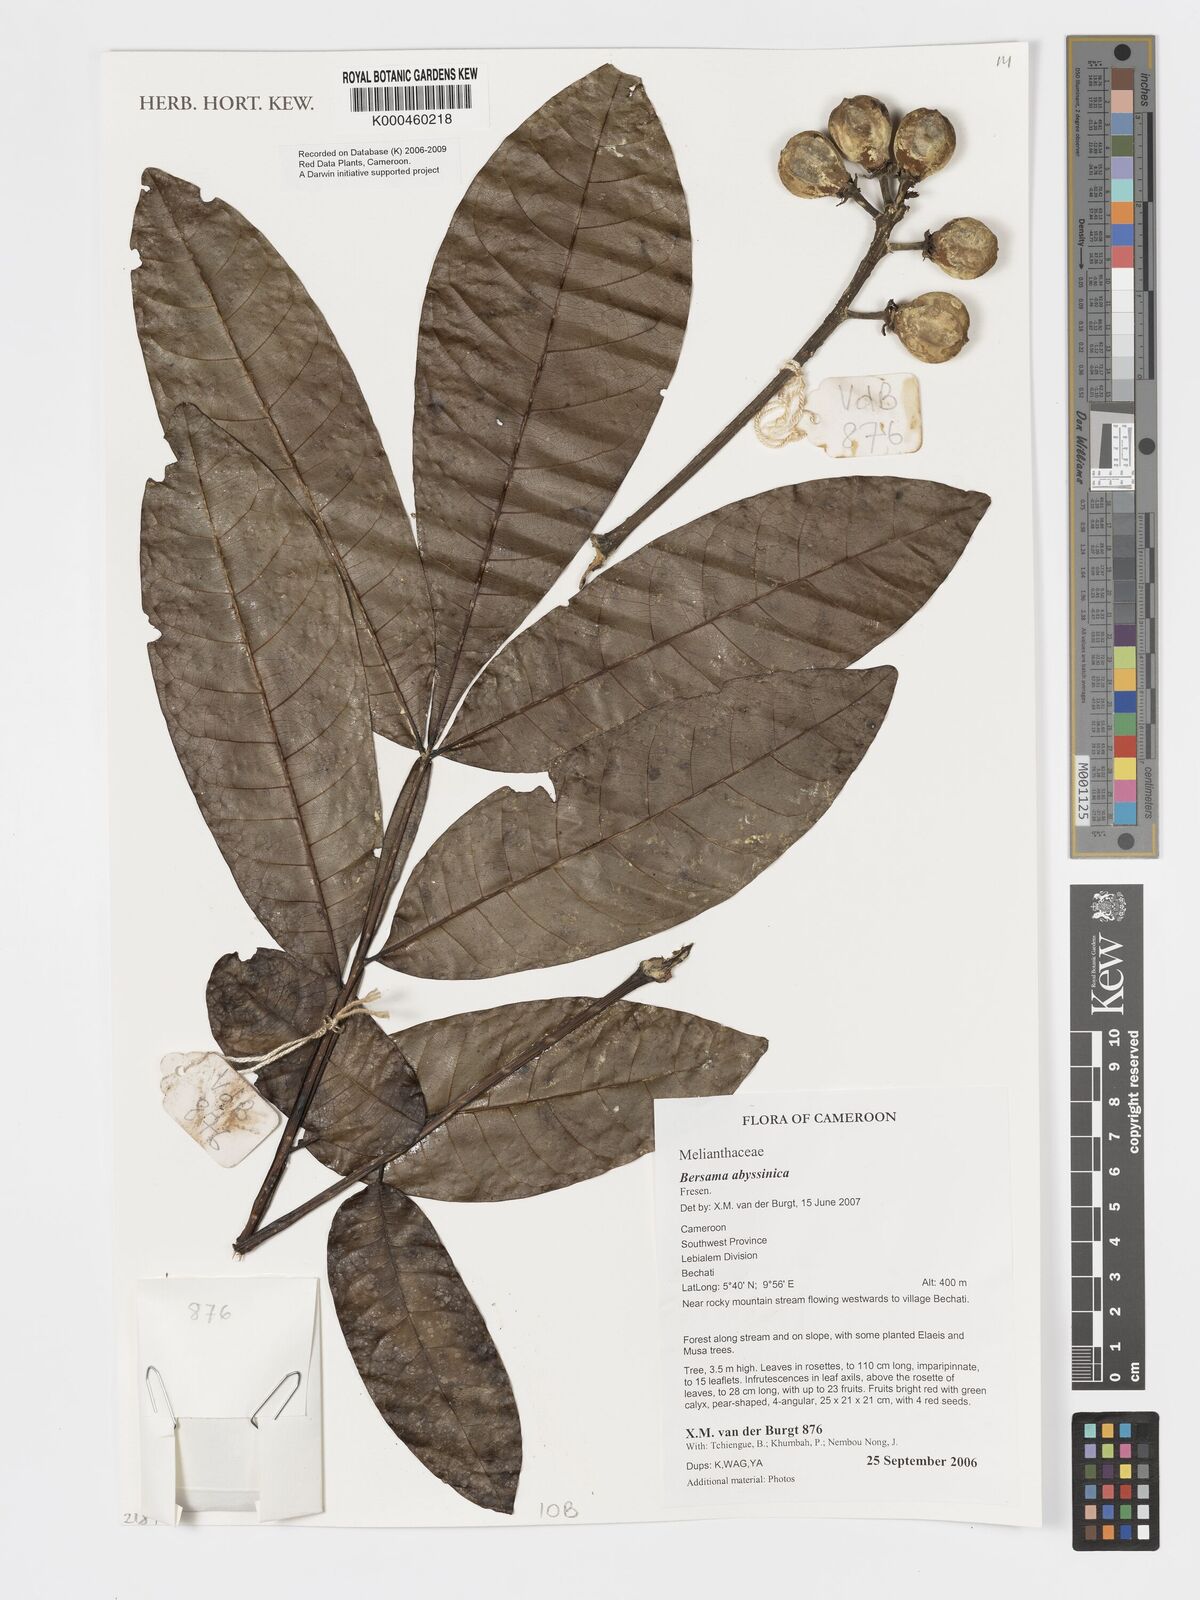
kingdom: Plantae
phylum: Tracheophyta
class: Magnoliopsida
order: Geraniales
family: Melianthaceae
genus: Bersama
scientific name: Bersama abyssinica
